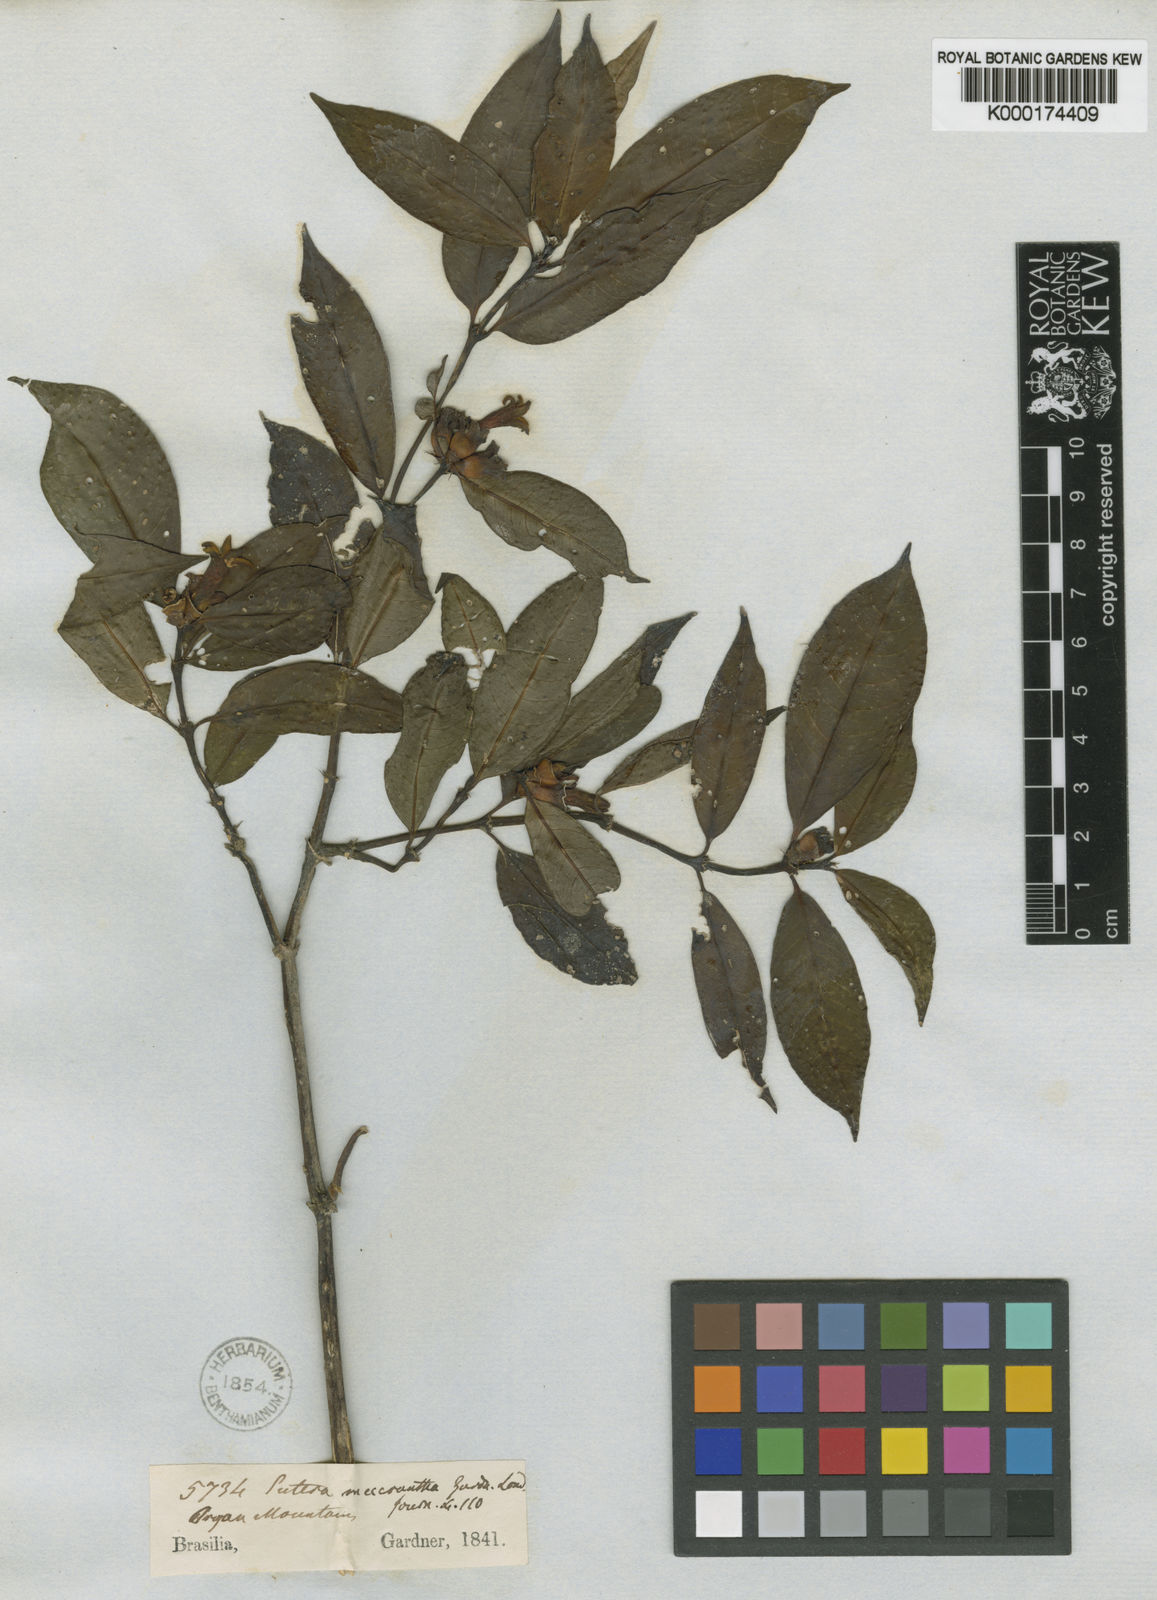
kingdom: Plantae
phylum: Tracheophyta
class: Magnoliopsida
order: Gentianales
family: Rubiaceae
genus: Psychotria
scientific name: Psychotria
